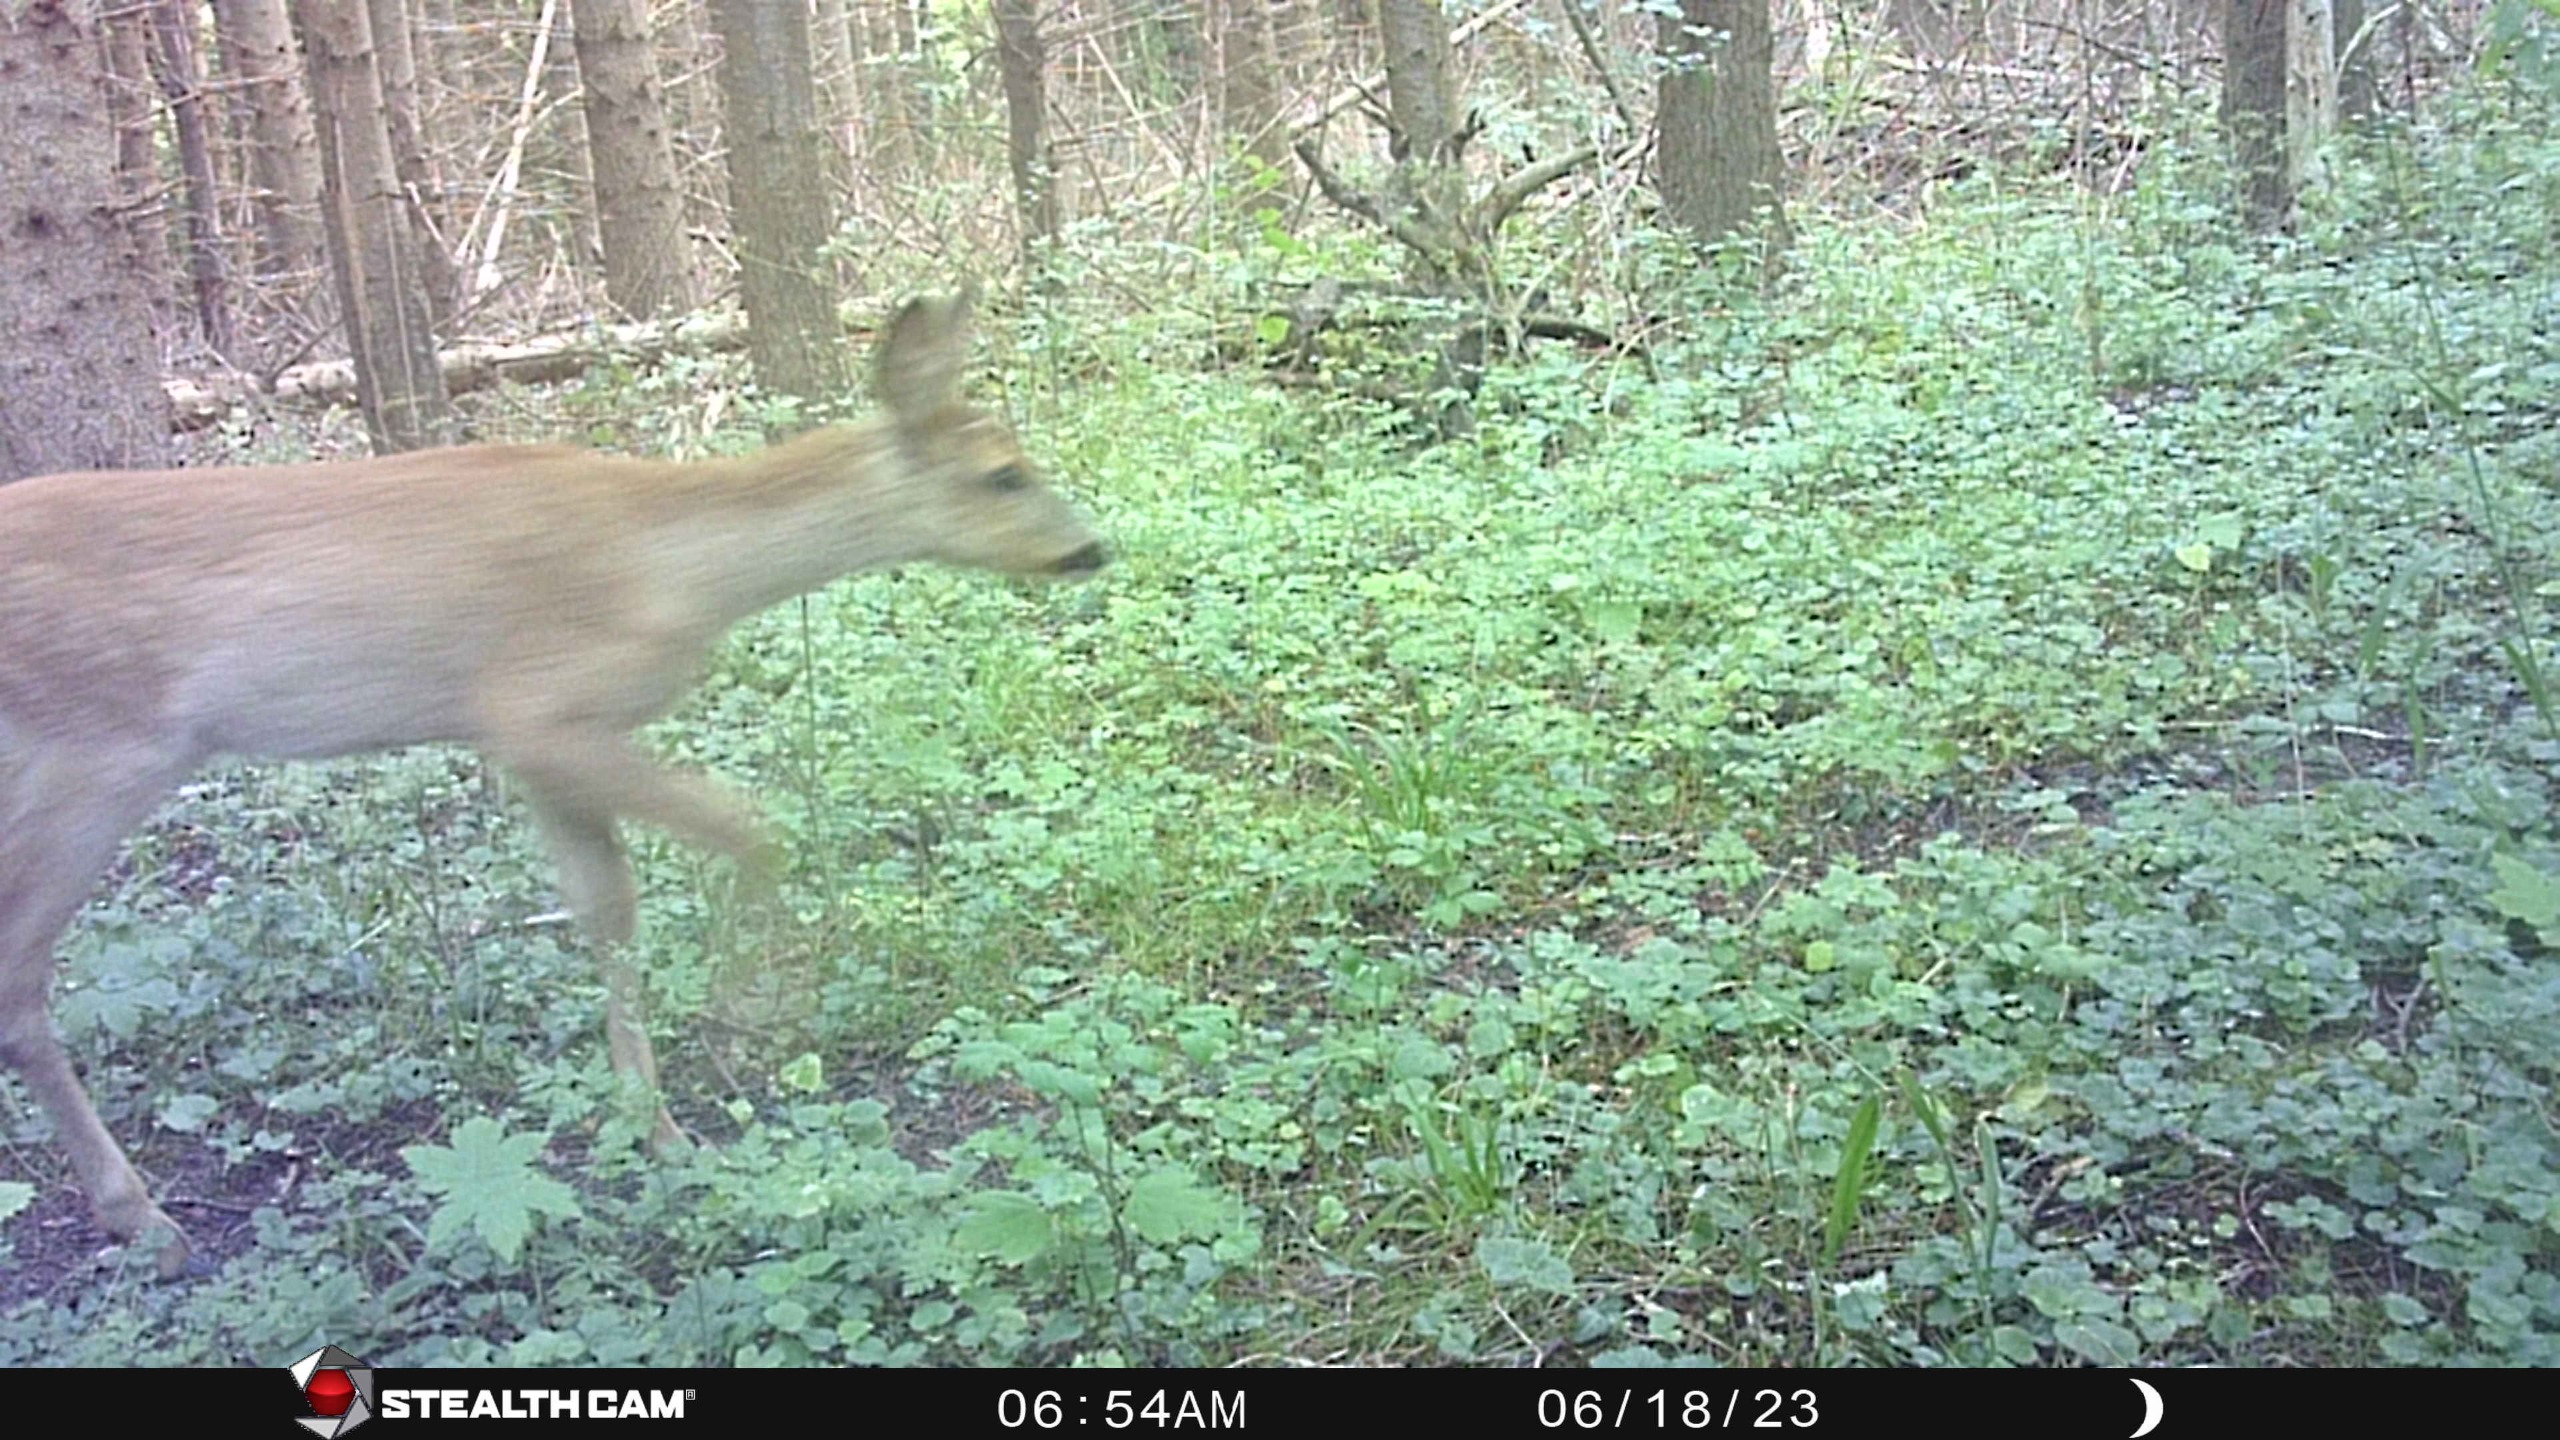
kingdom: Animalia
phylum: Chordata
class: Mammalia
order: Artiodactyla
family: Cervidae
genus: Capreolus
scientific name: Capreolus capreolus
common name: Rådyr
